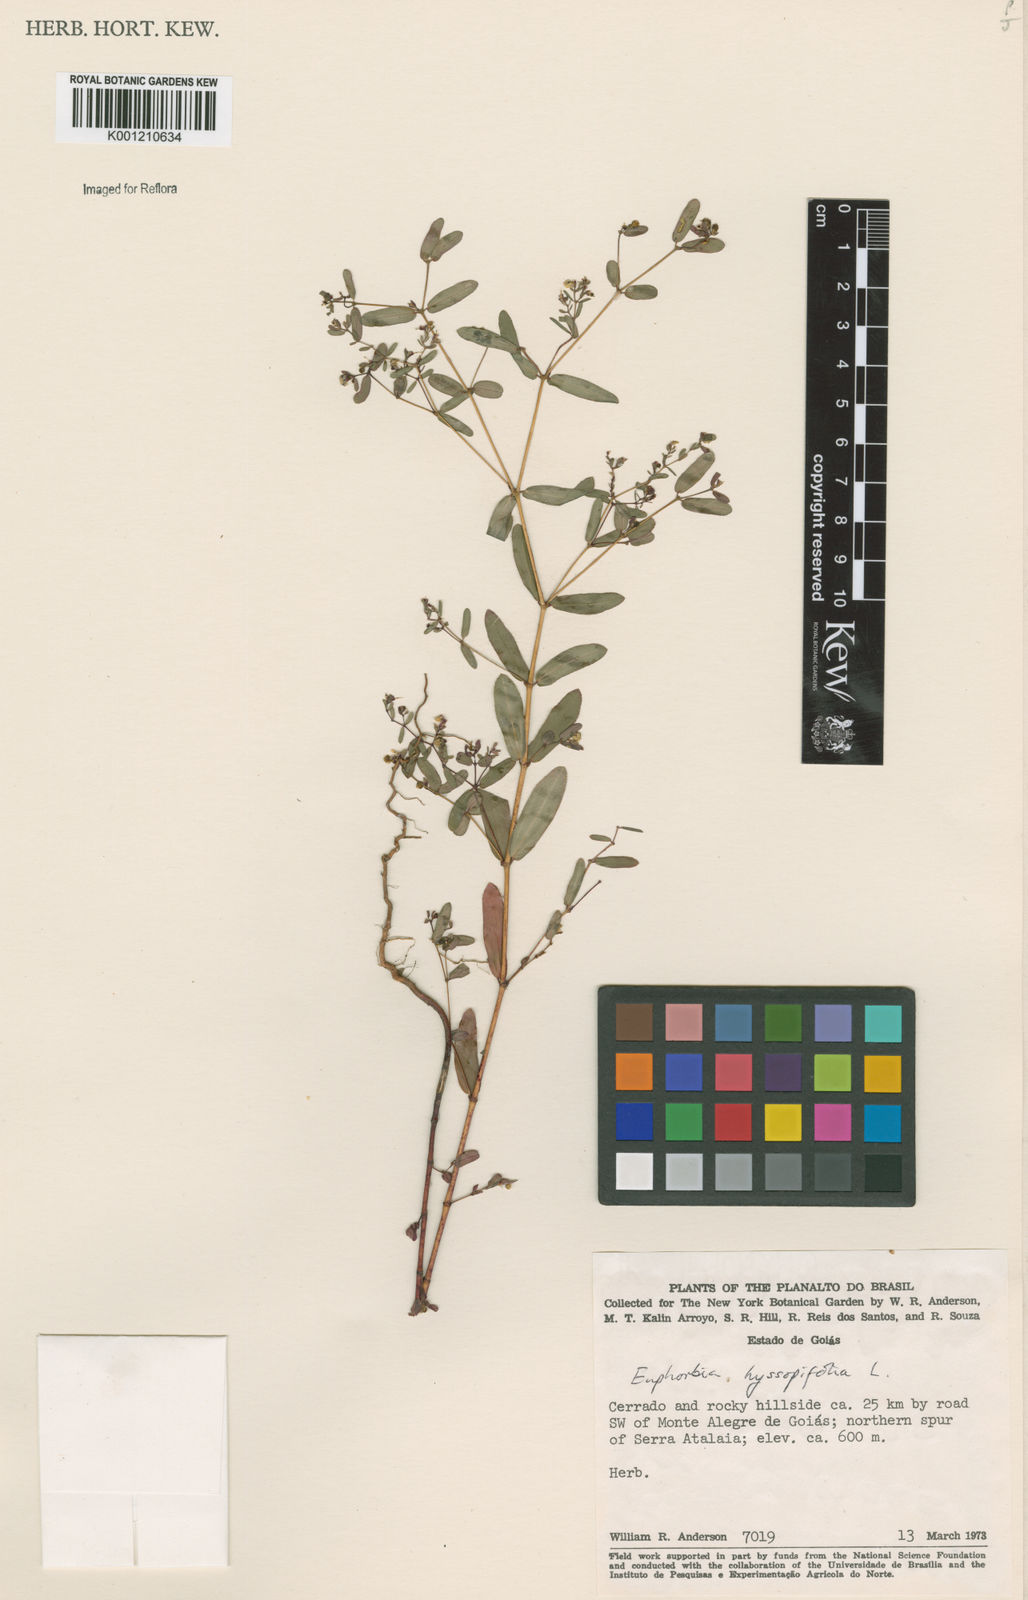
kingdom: Plantae
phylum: Tracheophyta
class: Magnoliopsida
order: Malpighiales
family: Euphorbiaceae
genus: Euphorbia
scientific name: Euphorbia hyssopifolia
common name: Hyssopleaf sandmat
